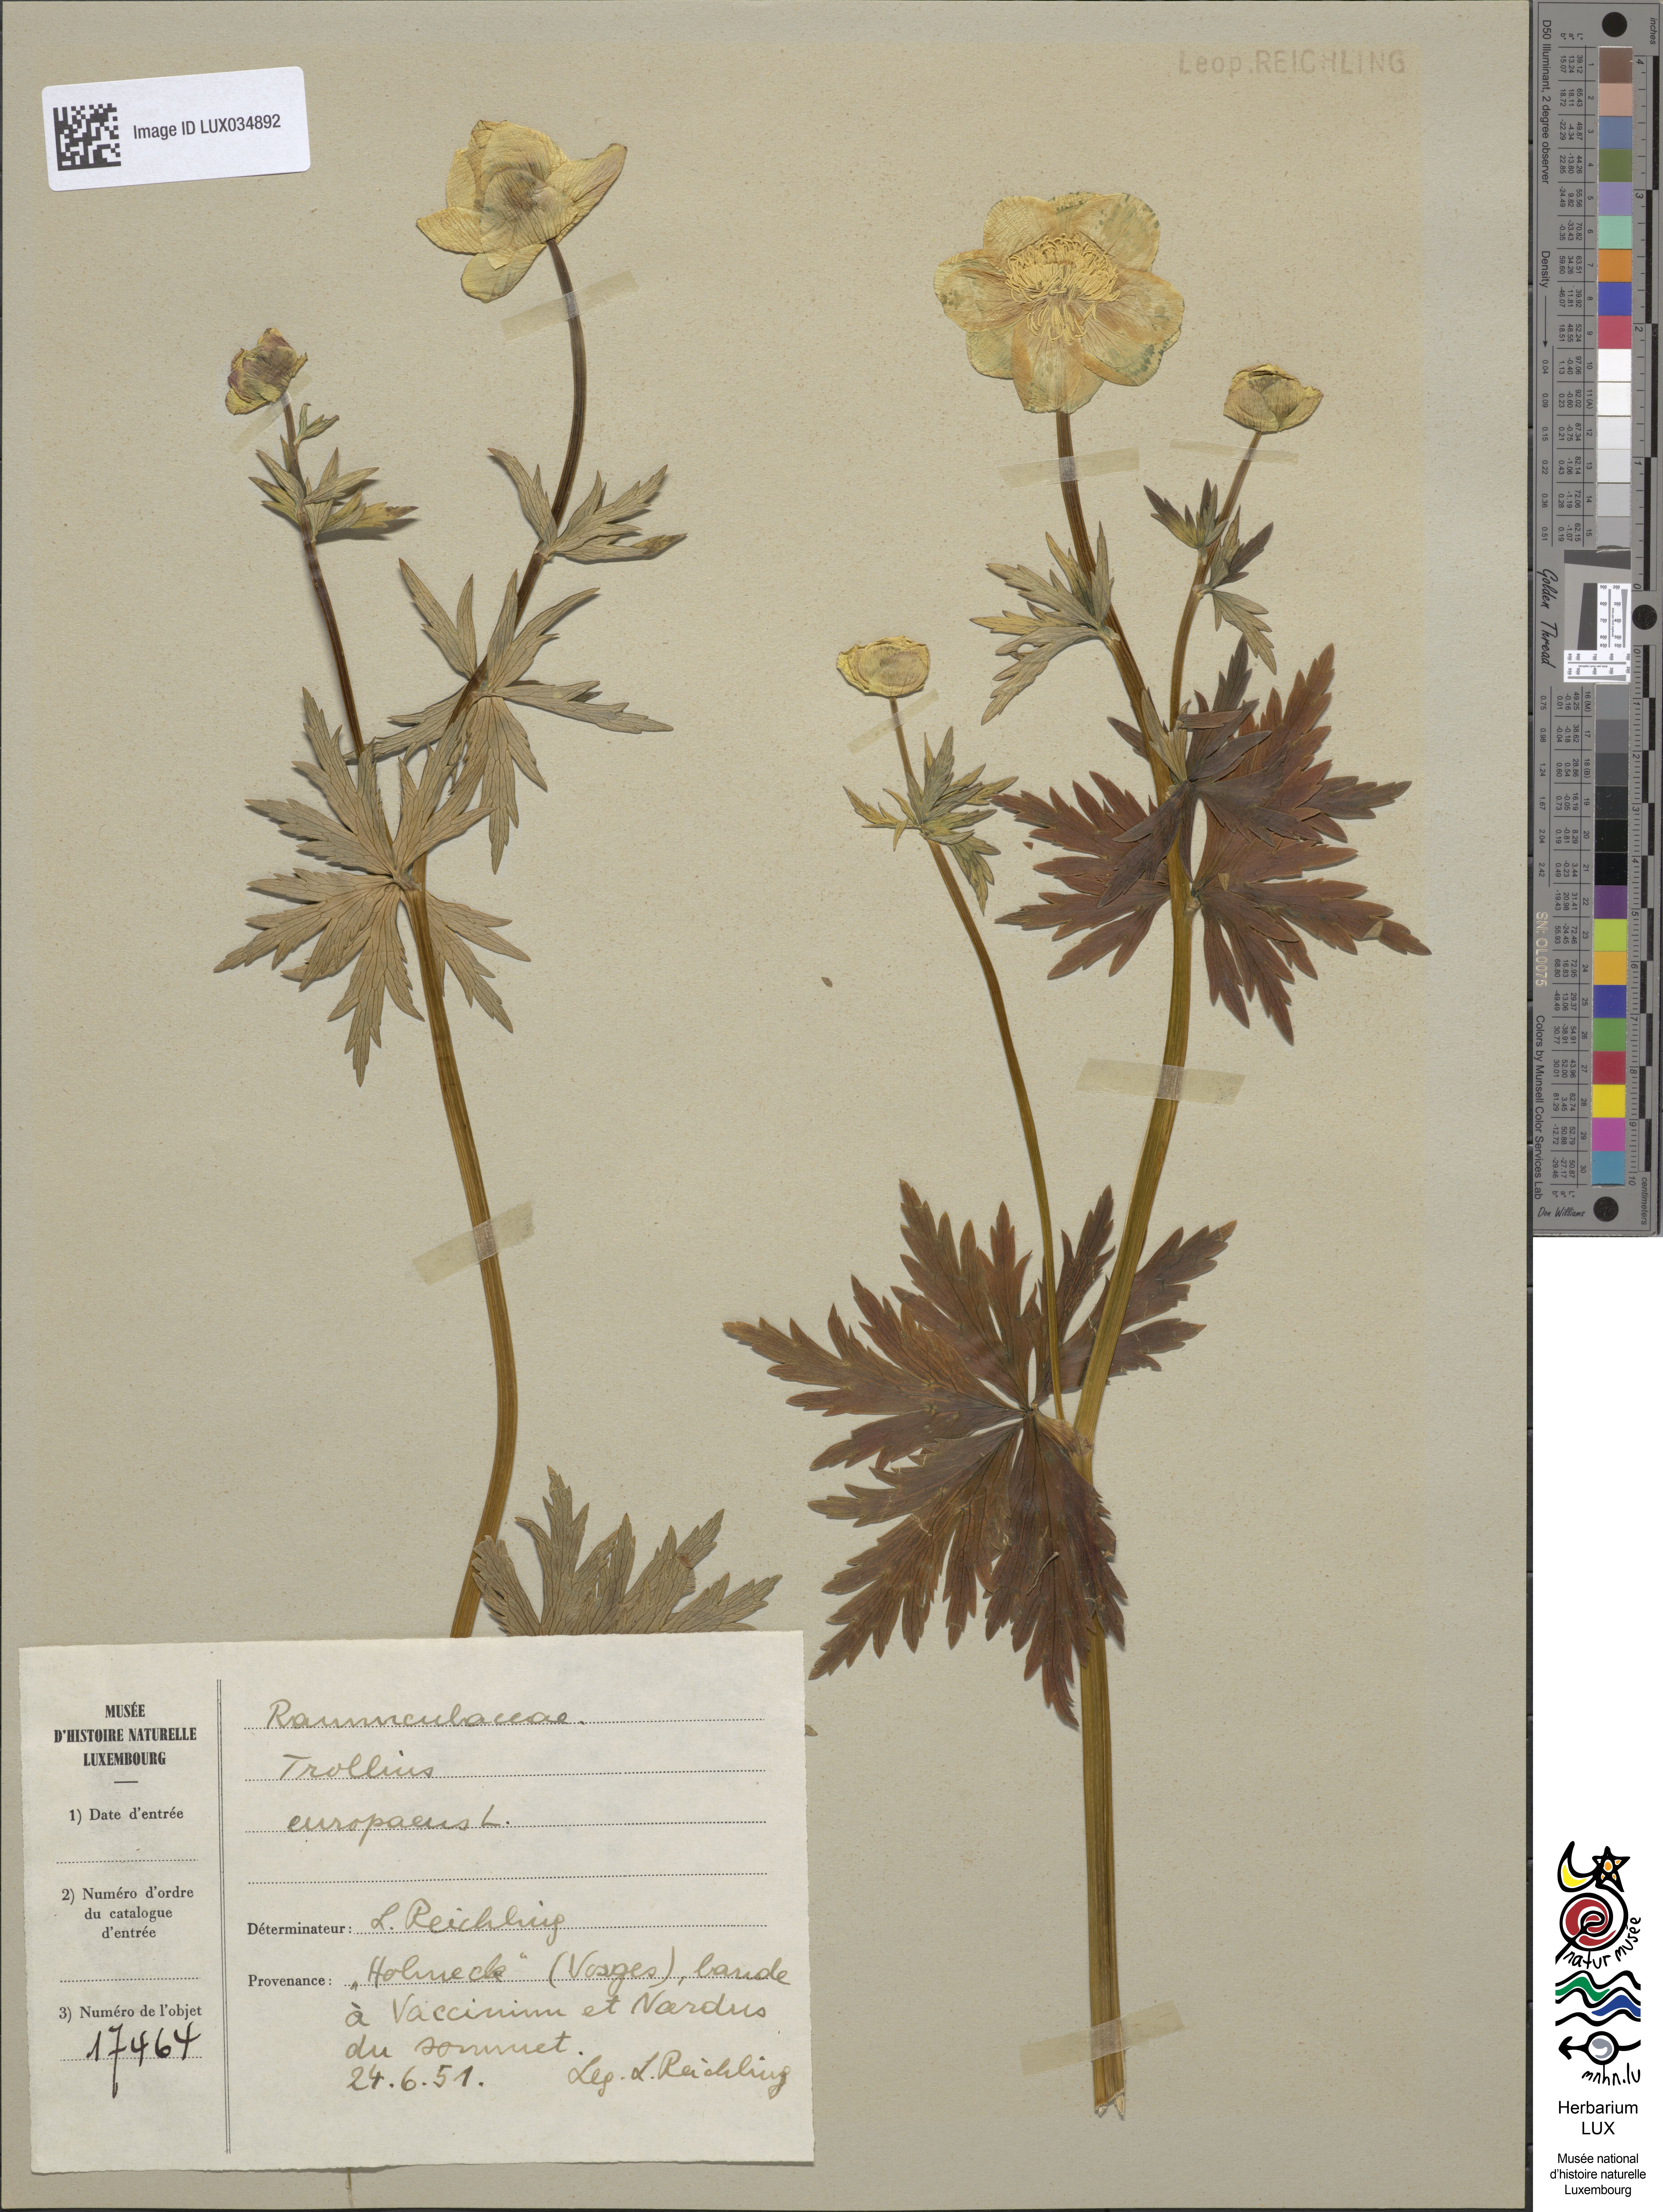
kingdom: Plantae
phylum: Tracheophyta
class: Magnoliopsida
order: Ranunculales
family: Ranunculaceae
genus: Trollius
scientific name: Trollius europaeus
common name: European globeflower
